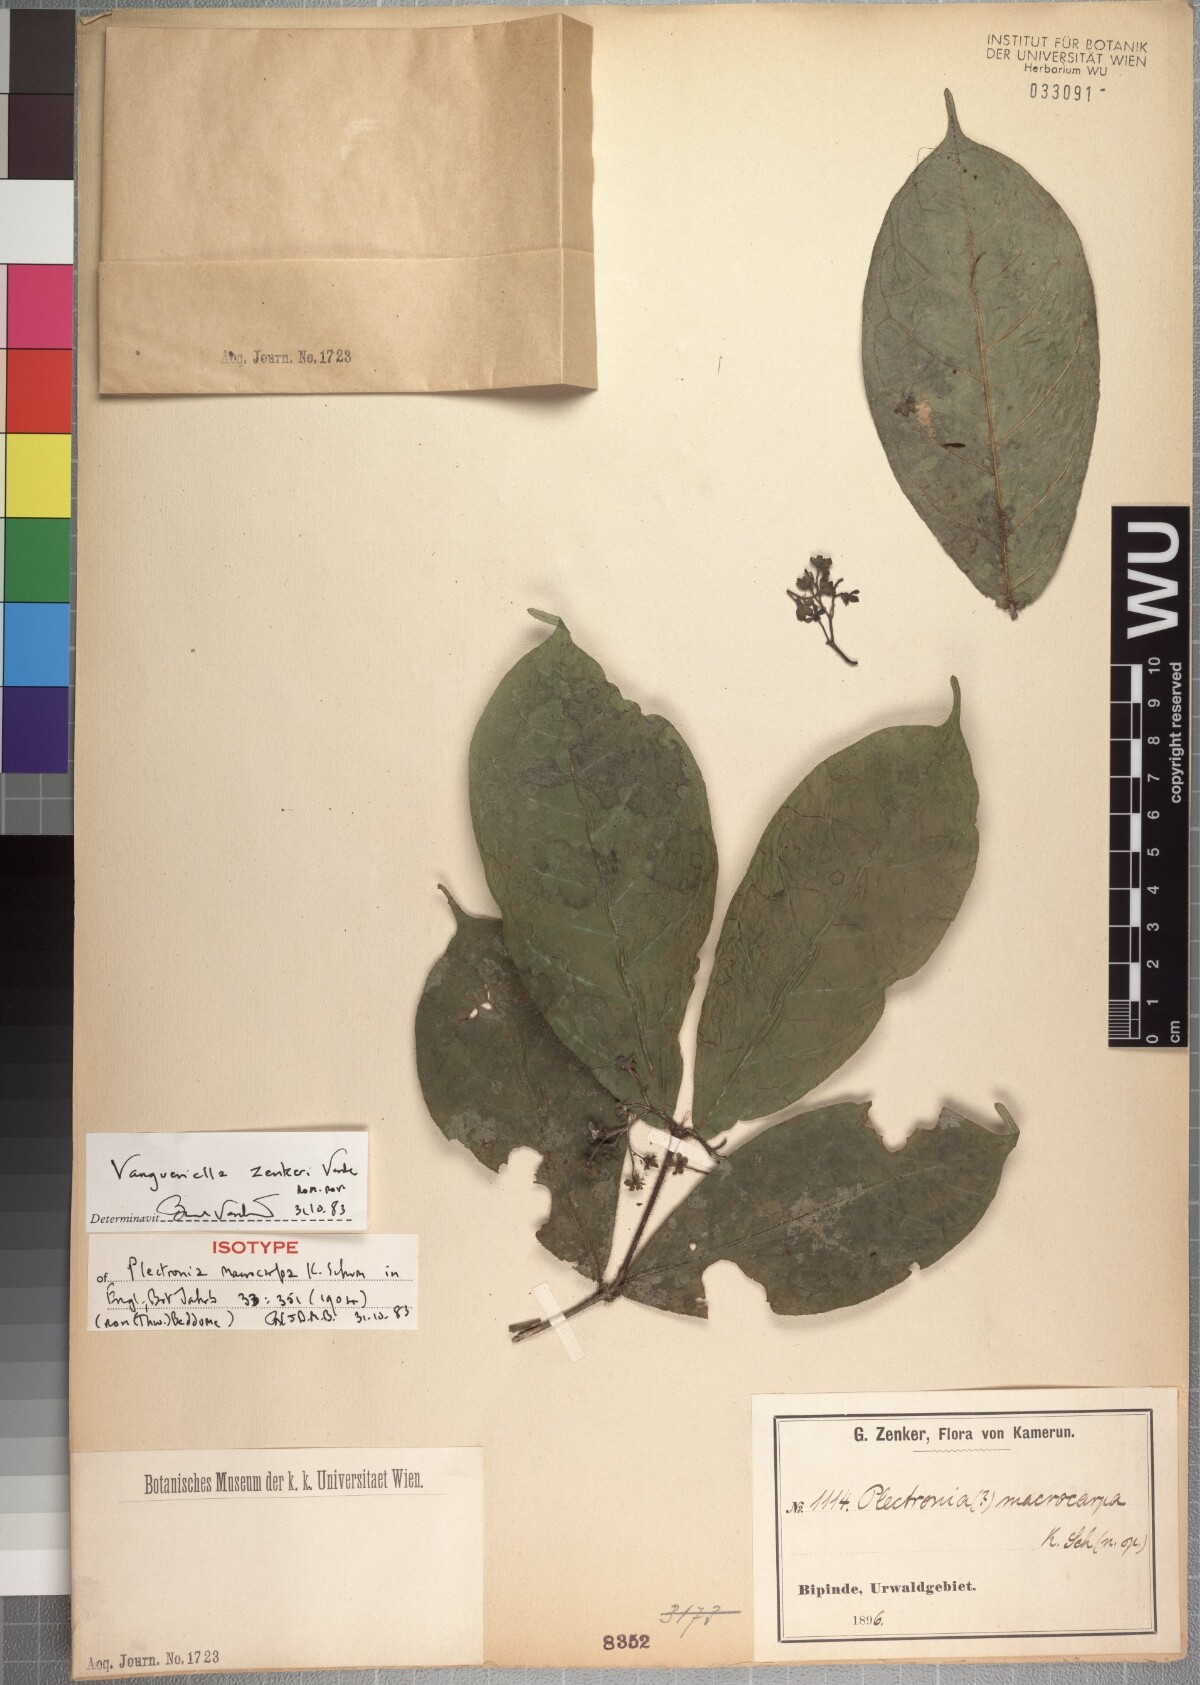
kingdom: Plantae
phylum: Tracheophyta
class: Magnoliopsida
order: Gentianales
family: Rubiaceae
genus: Vangueriella
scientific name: Vangueriella zenkeri
